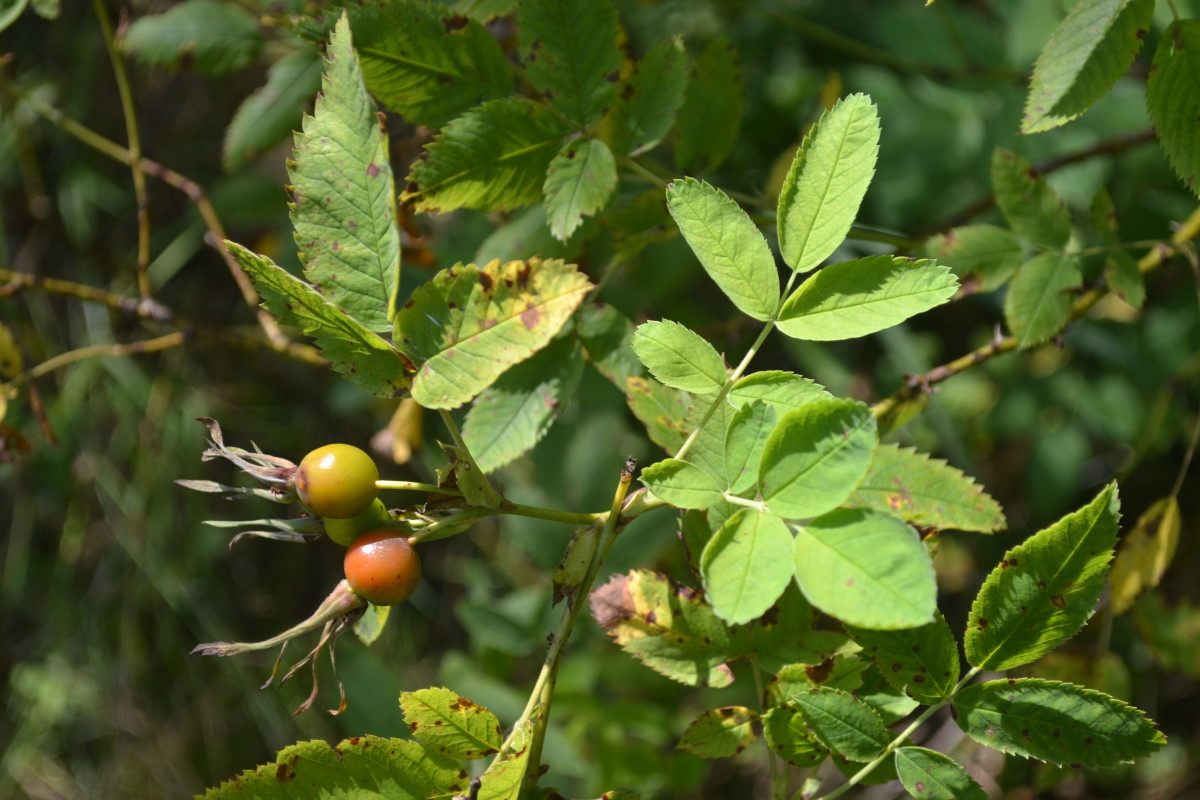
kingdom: Plantae
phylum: Tracheophyta
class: Magnoliopsida
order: Rosales
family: Rosaceae
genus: Rosa
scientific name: Rosa
